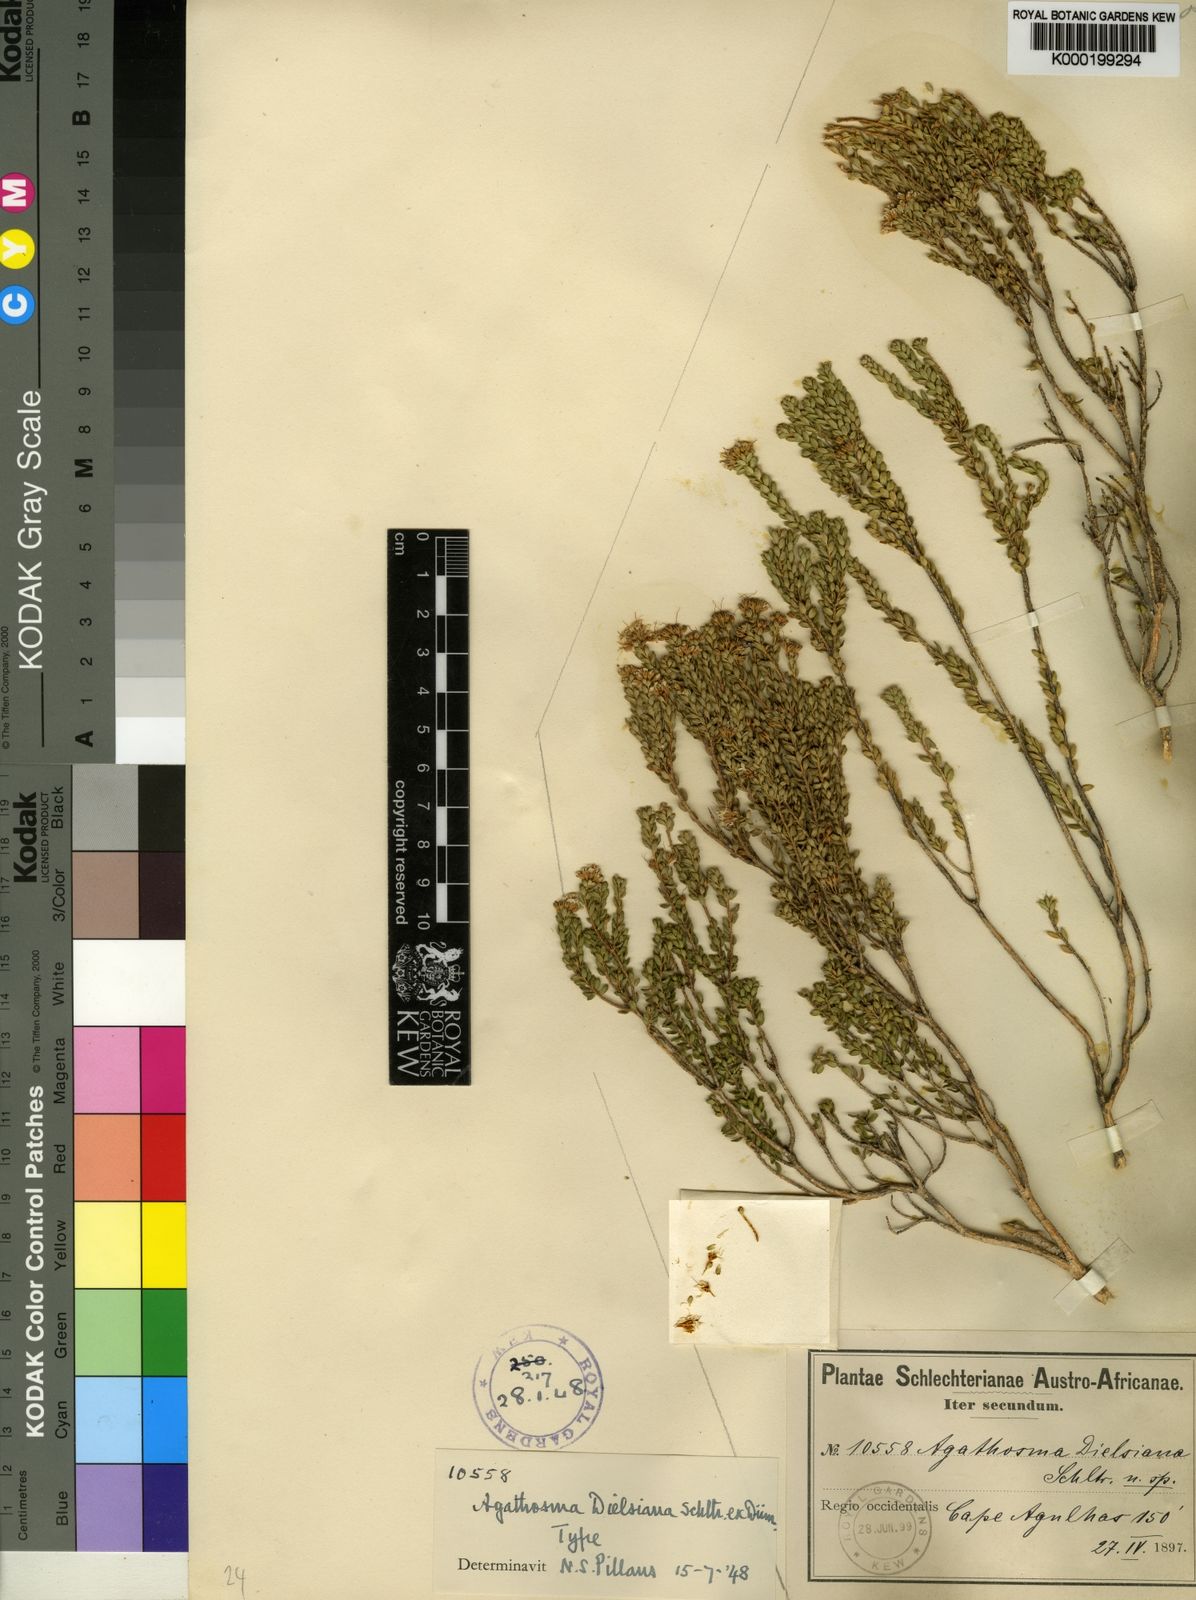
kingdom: Plantae
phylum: Tracheophyta
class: Magnoliopsida
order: Sapindales
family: Rutaceae
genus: Agathosma
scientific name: Agathosma dielsiana
